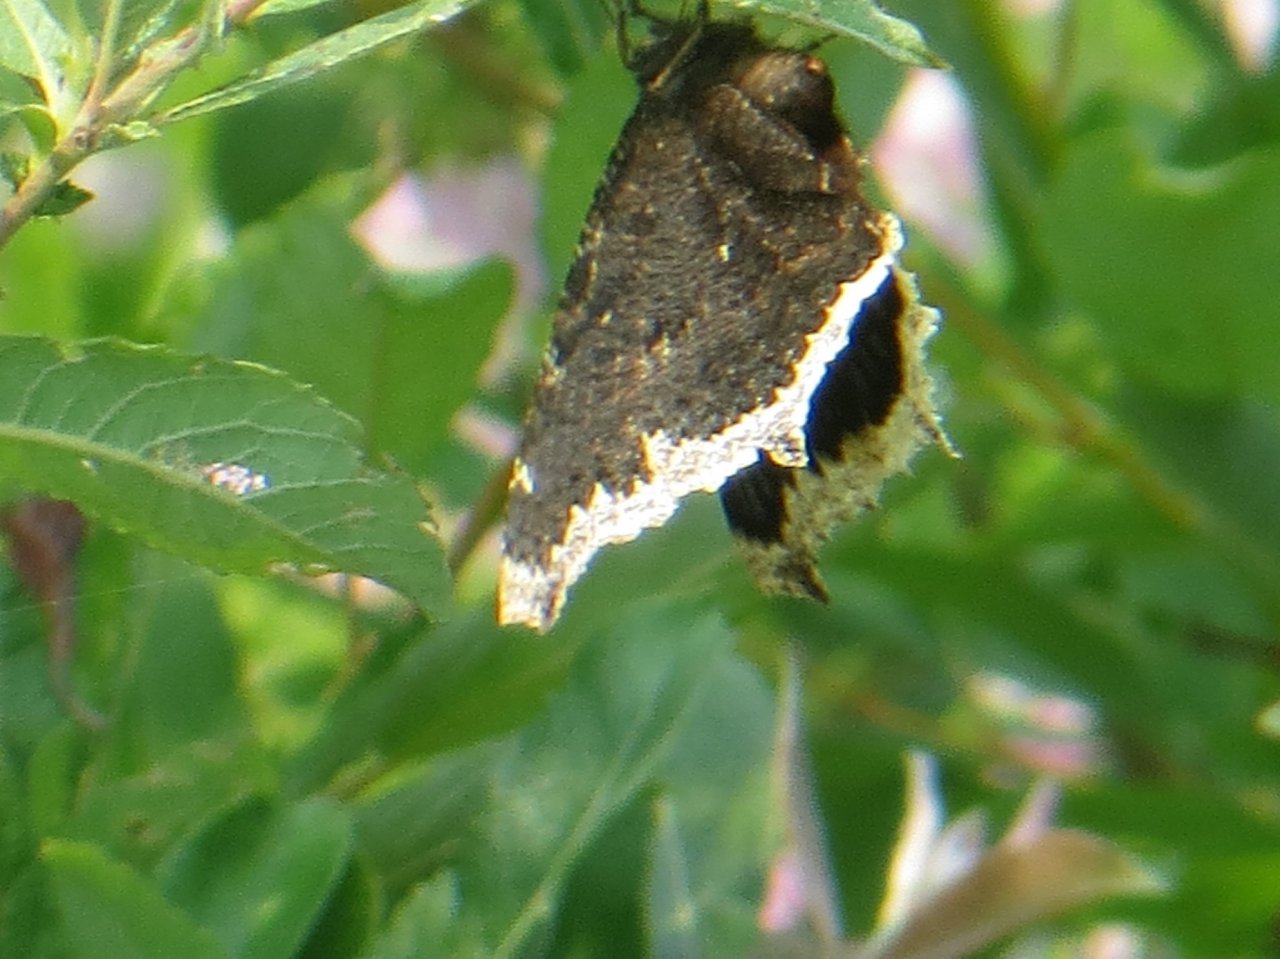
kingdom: Animalia
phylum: Arthropoda
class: Insecta
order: Lepidoptera
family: Nymphalidae
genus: Nymphalis
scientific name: Nymphalis antiopa
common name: Mourning Cloak
